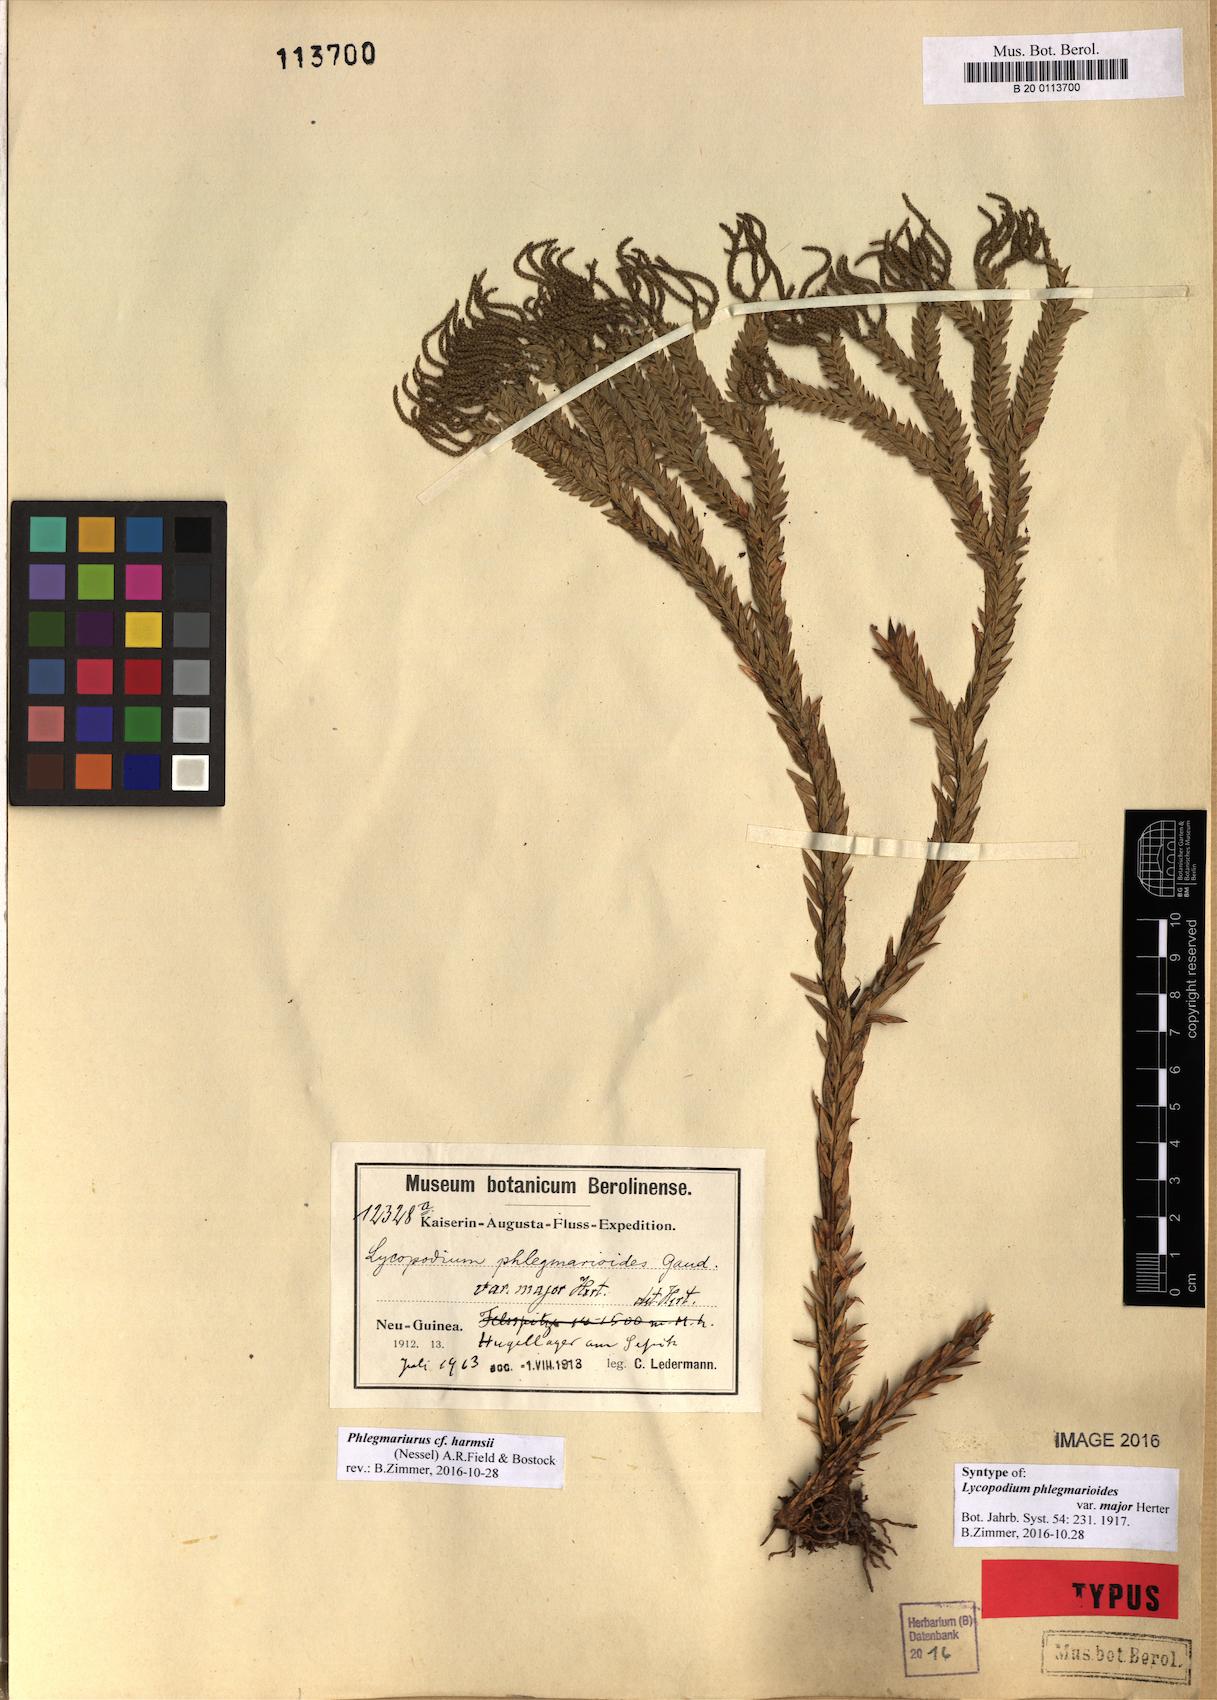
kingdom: Plantae
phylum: Tracheophyta
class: Lycopodiopsida
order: Lycopodiales
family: Lycopodiaceae
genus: Phlegmariurus
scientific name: Phlegmariurus harmsii
